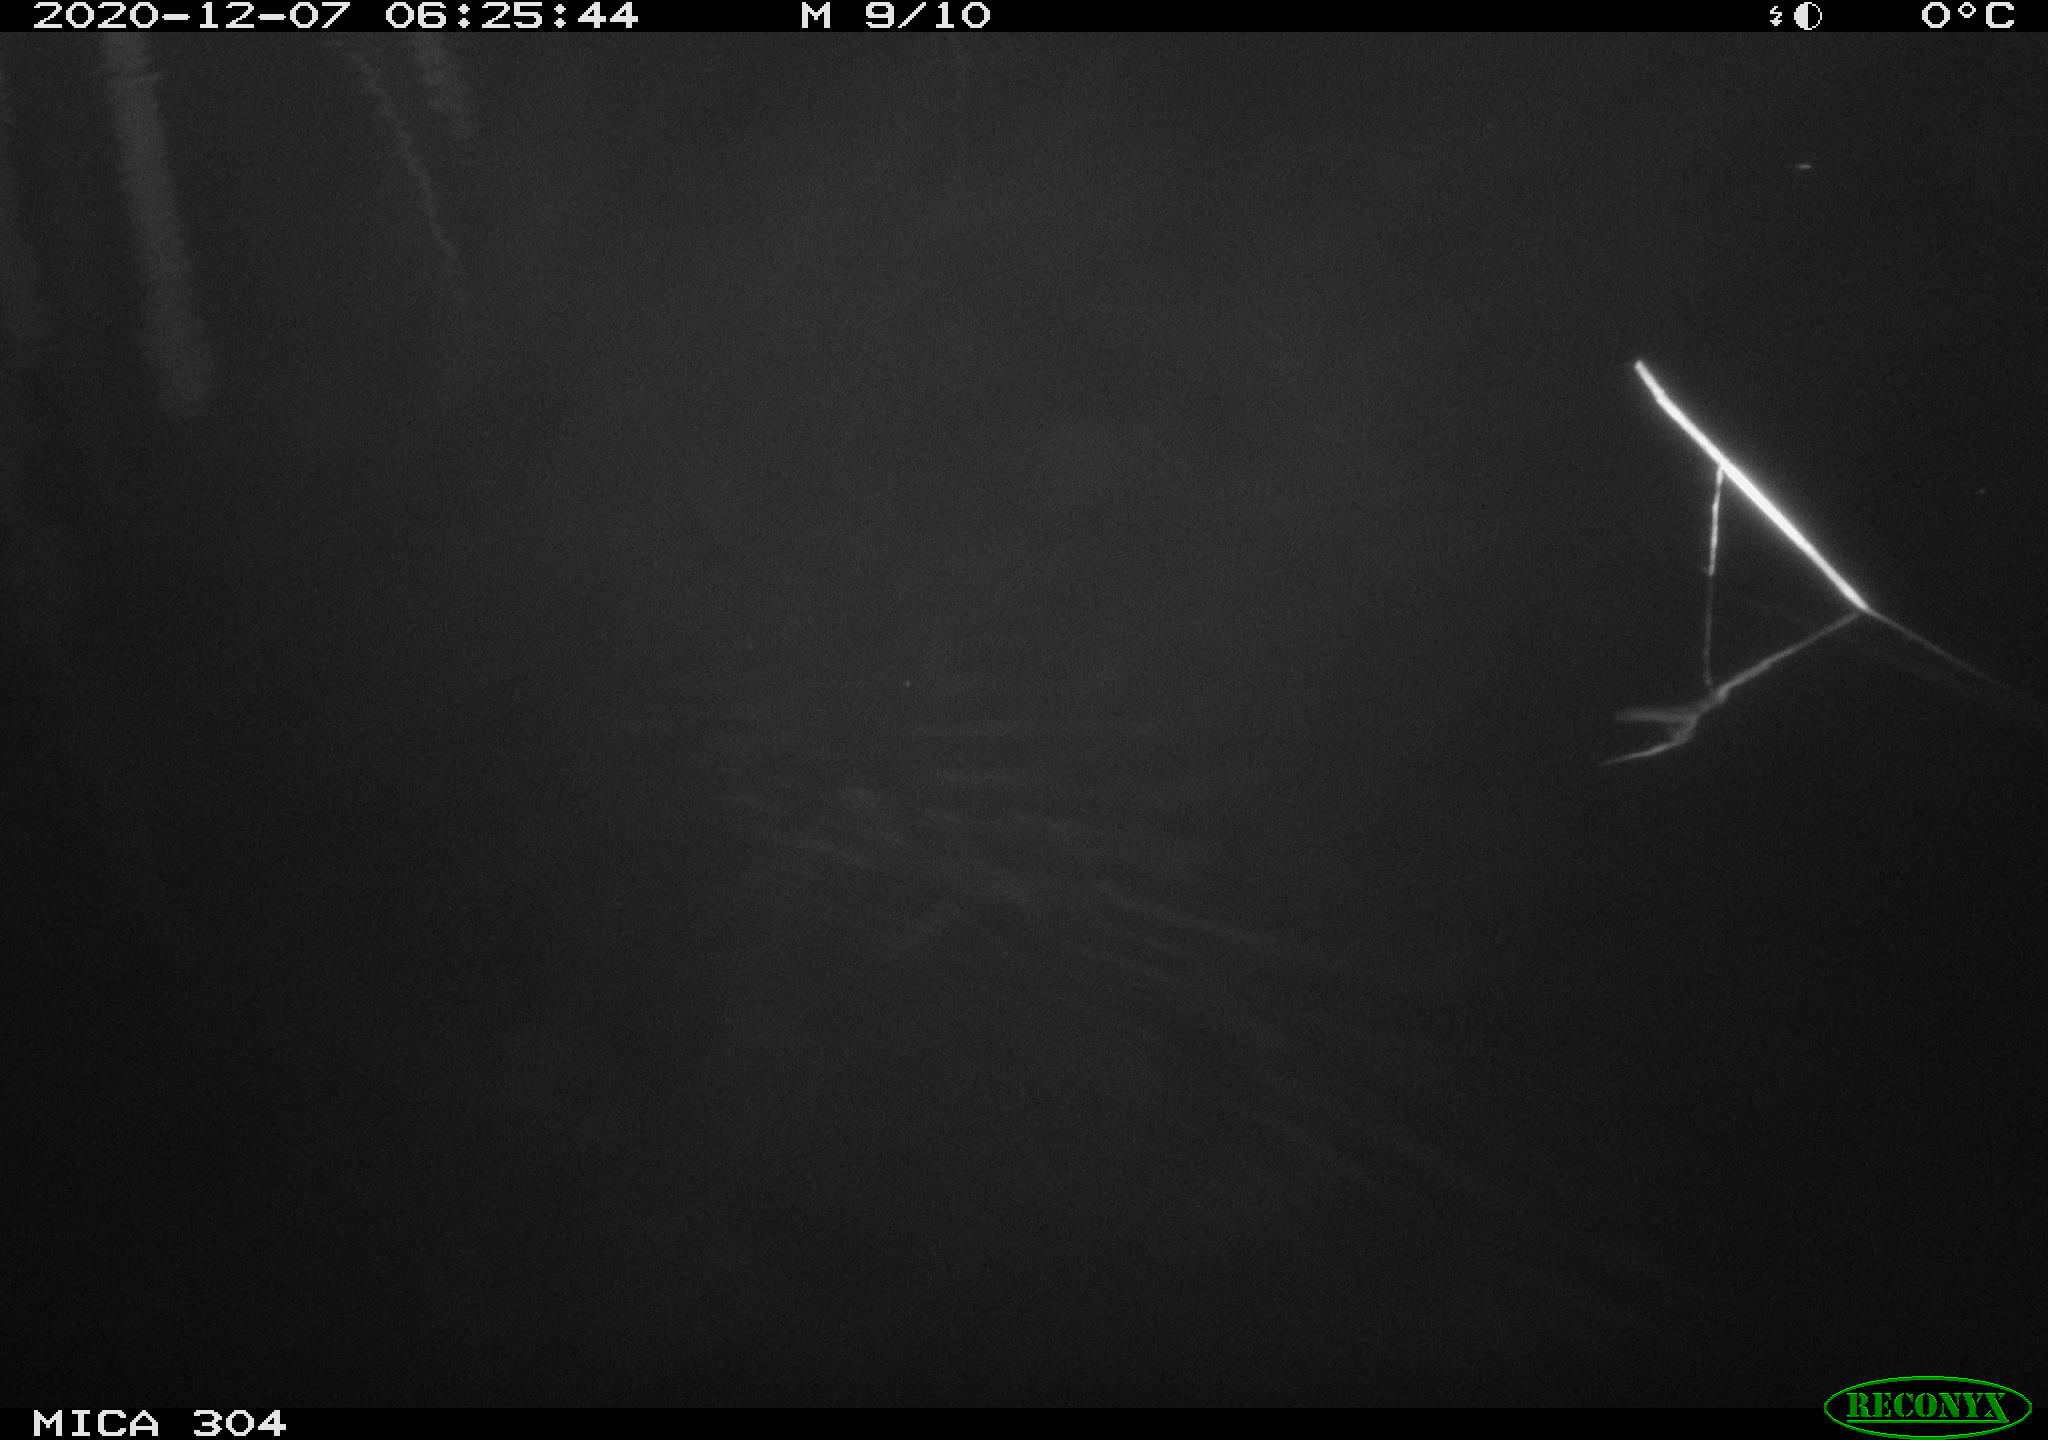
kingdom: Animalia
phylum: Chordata
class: Mammalia
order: Rodentia
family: Muridae
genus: Rattus
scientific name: Rattus norvegicus
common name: Brown rat
